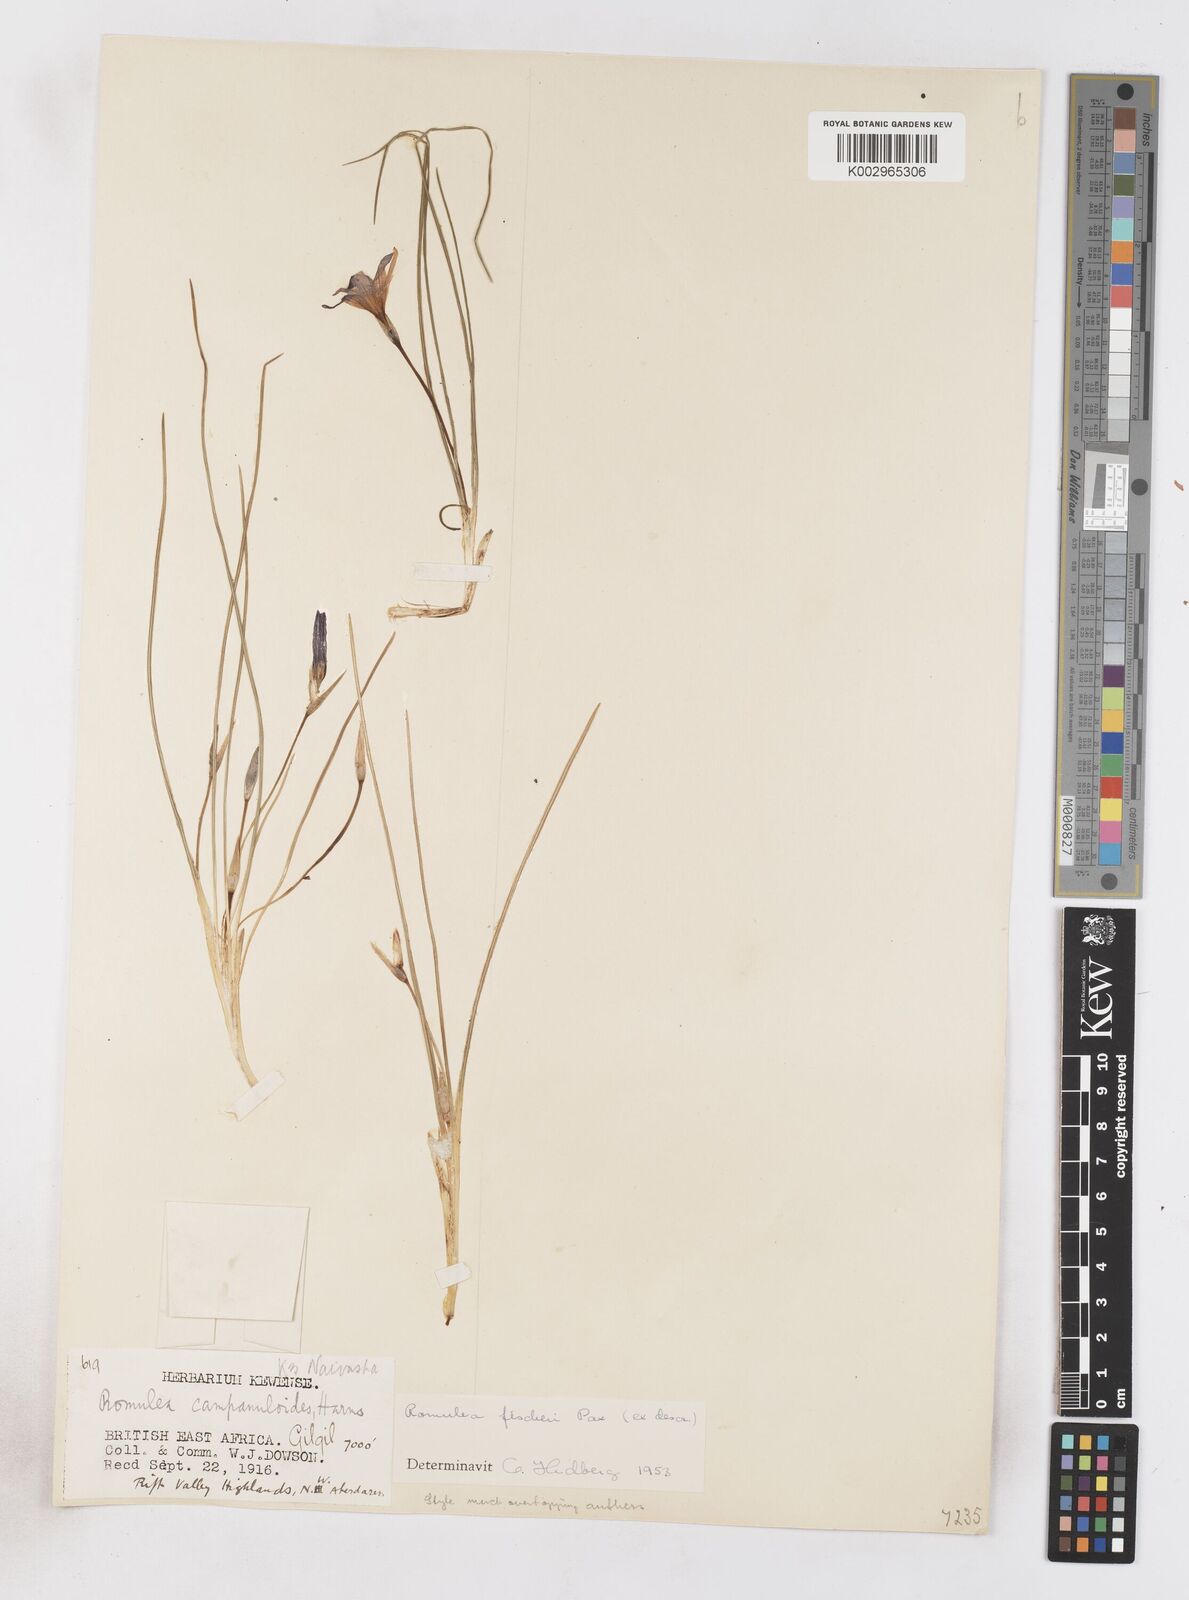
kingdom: Plantae
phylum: Tracheophyta
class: Liliopsida
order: Asparagales
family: Iridaceae
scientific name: Iridaceae
